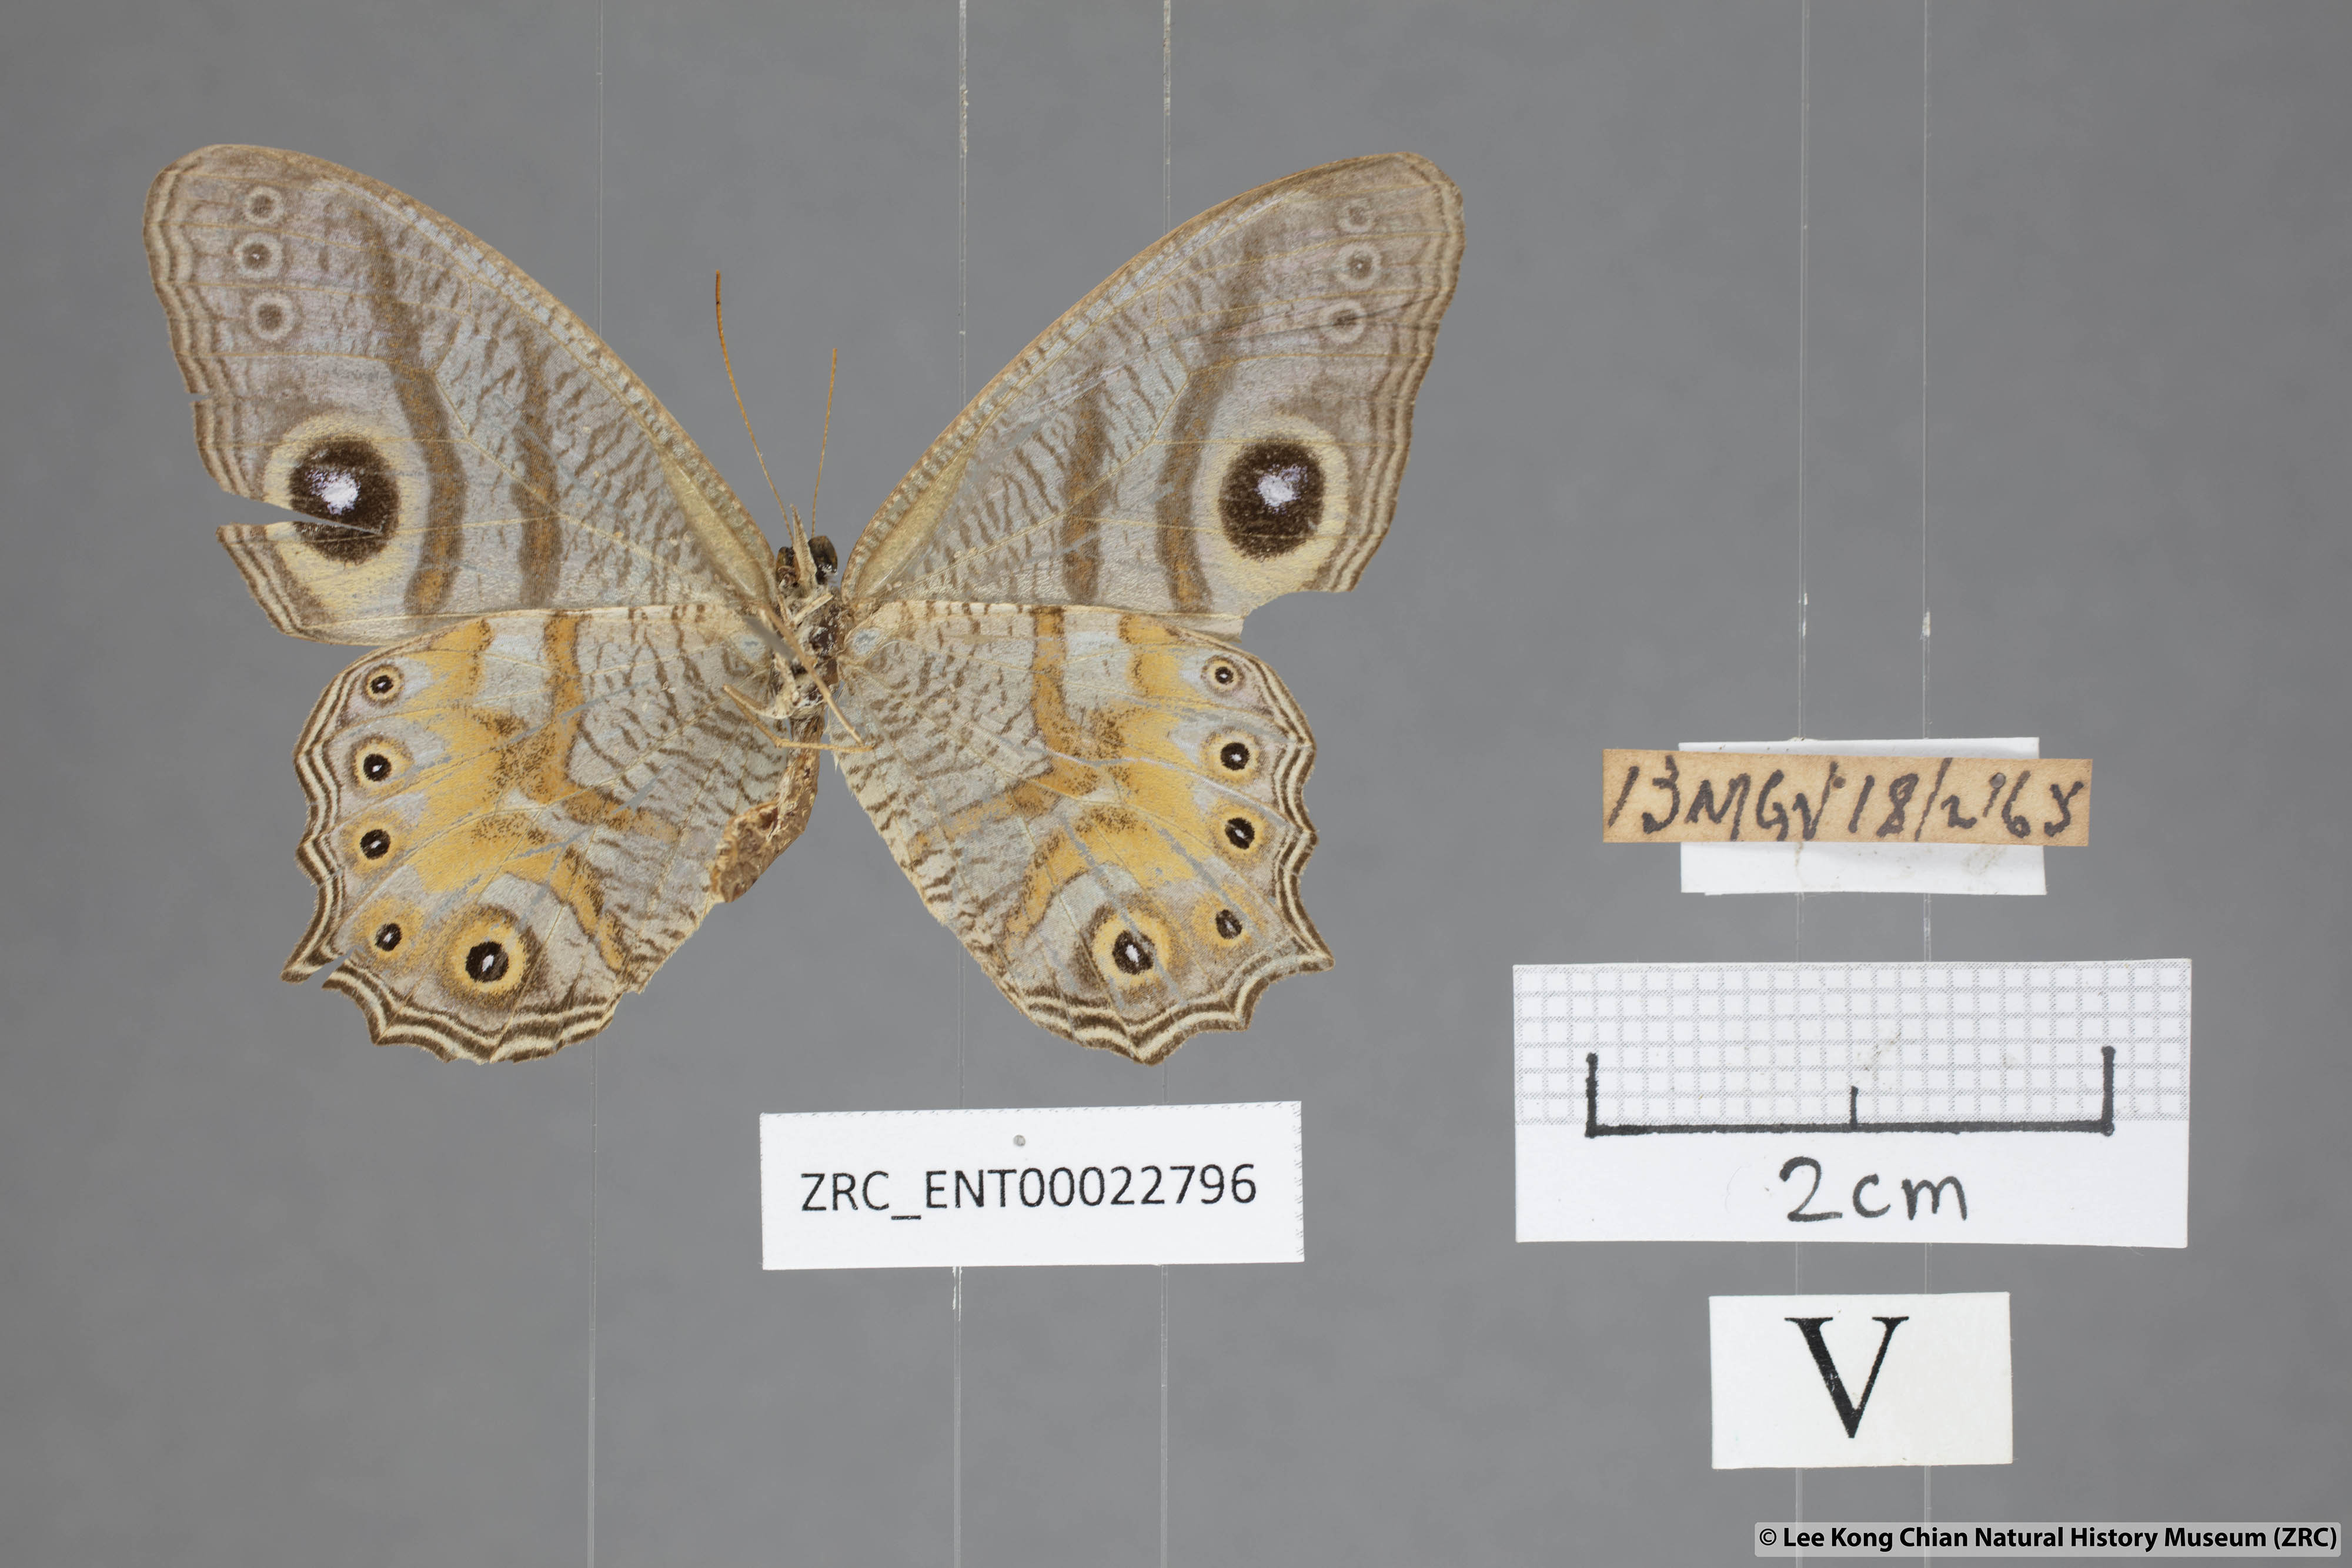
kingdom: Animalia
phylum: Arthropoda
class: Insecta
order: Lepidoptera
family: Nymphalidae
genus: Erites
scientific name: Erites angularis
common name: Angled cyclops
